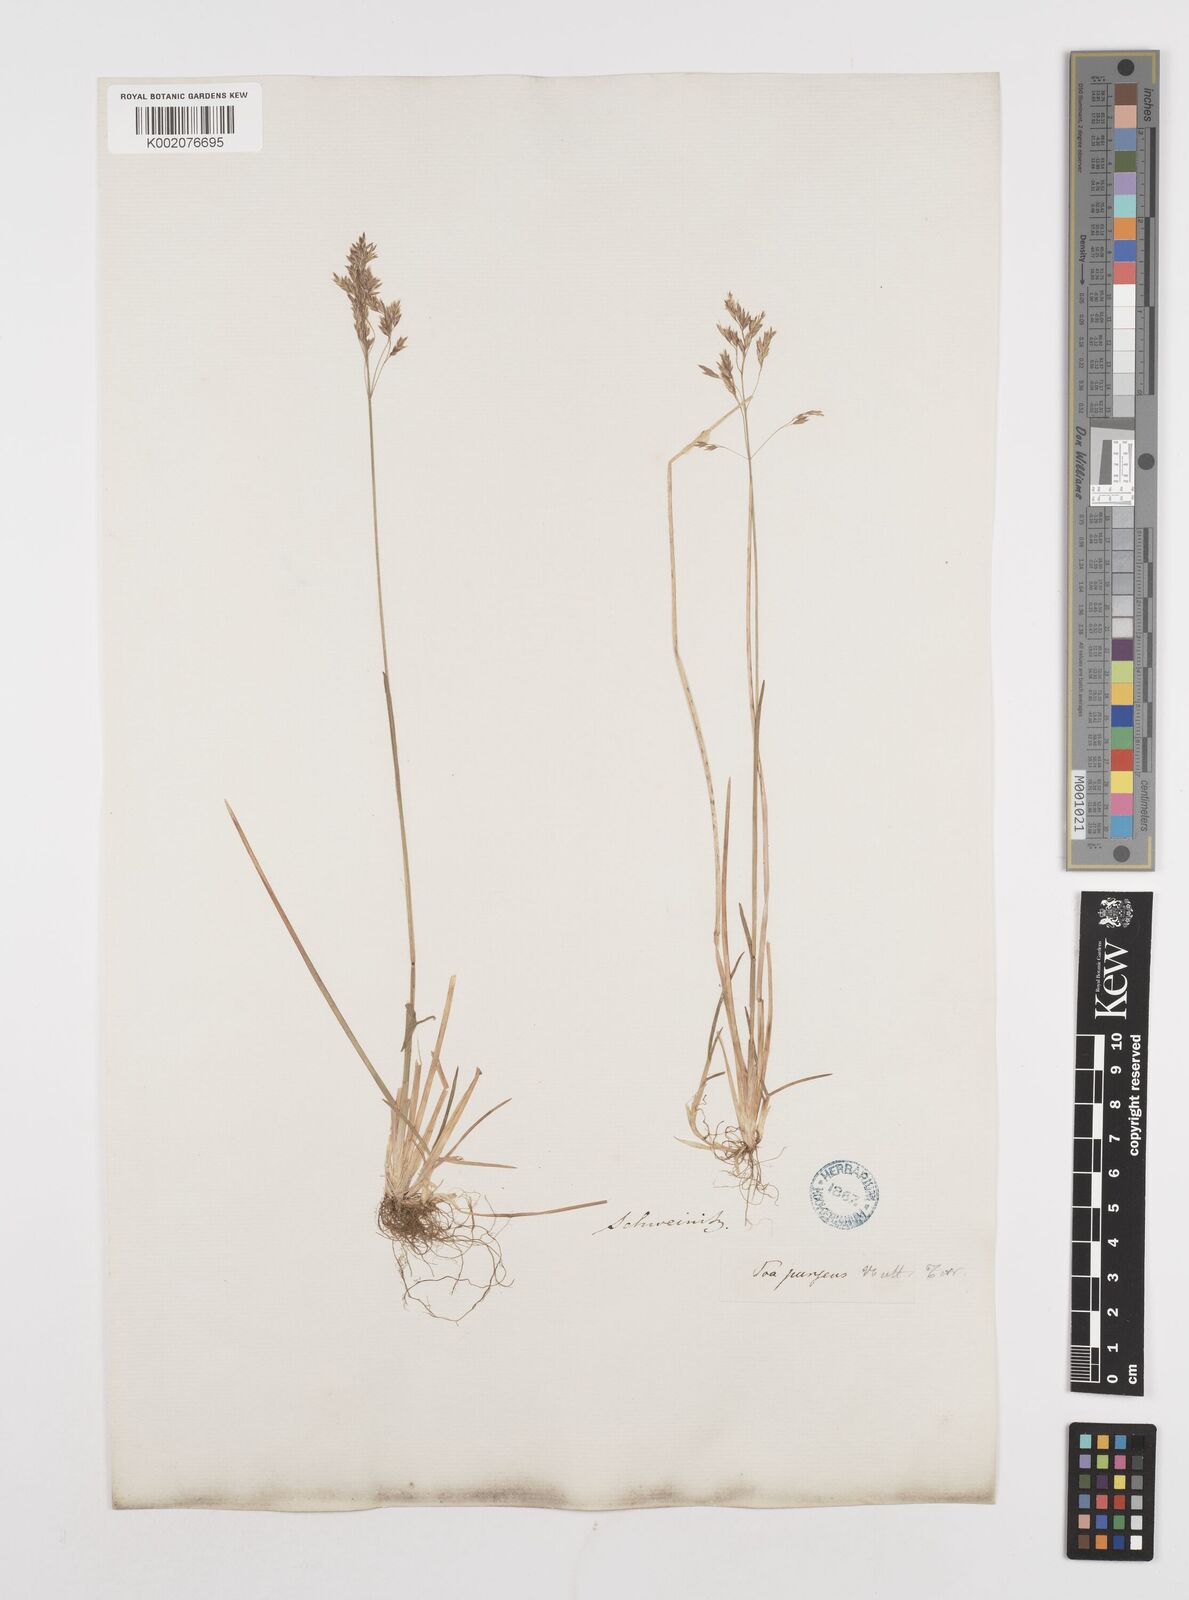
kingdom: Plantae
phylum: Tracheophyta
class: Liliopsida
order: Poales
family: Poaceae
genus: Poa
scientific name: Poa
